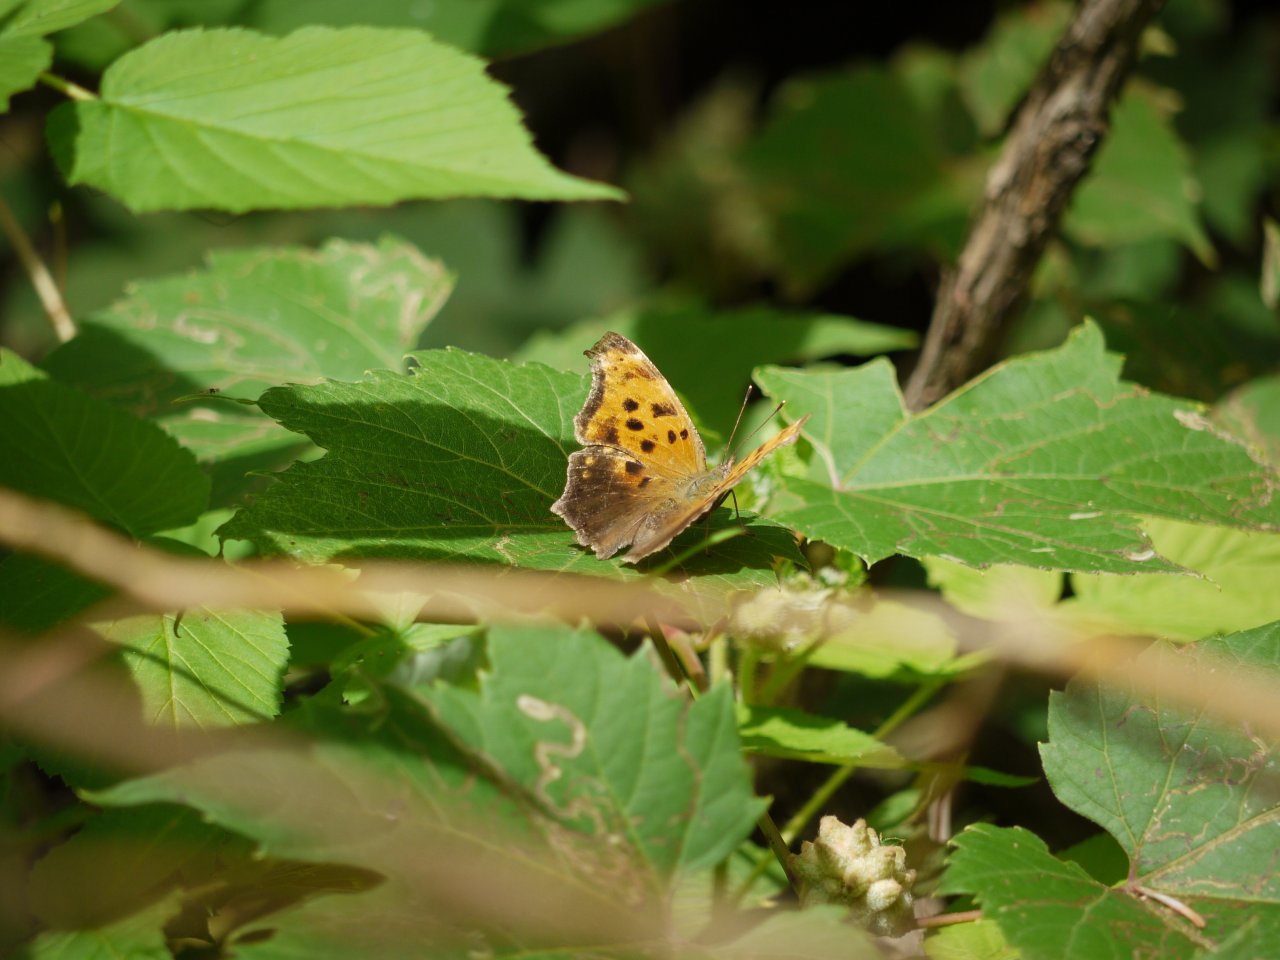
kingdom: Animalia
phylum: Arthropoda
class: Insecta
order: Lepidoptera
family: Nymphalidae
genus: Polygonia
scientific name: Polygonia comma
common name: Eastern Comma
